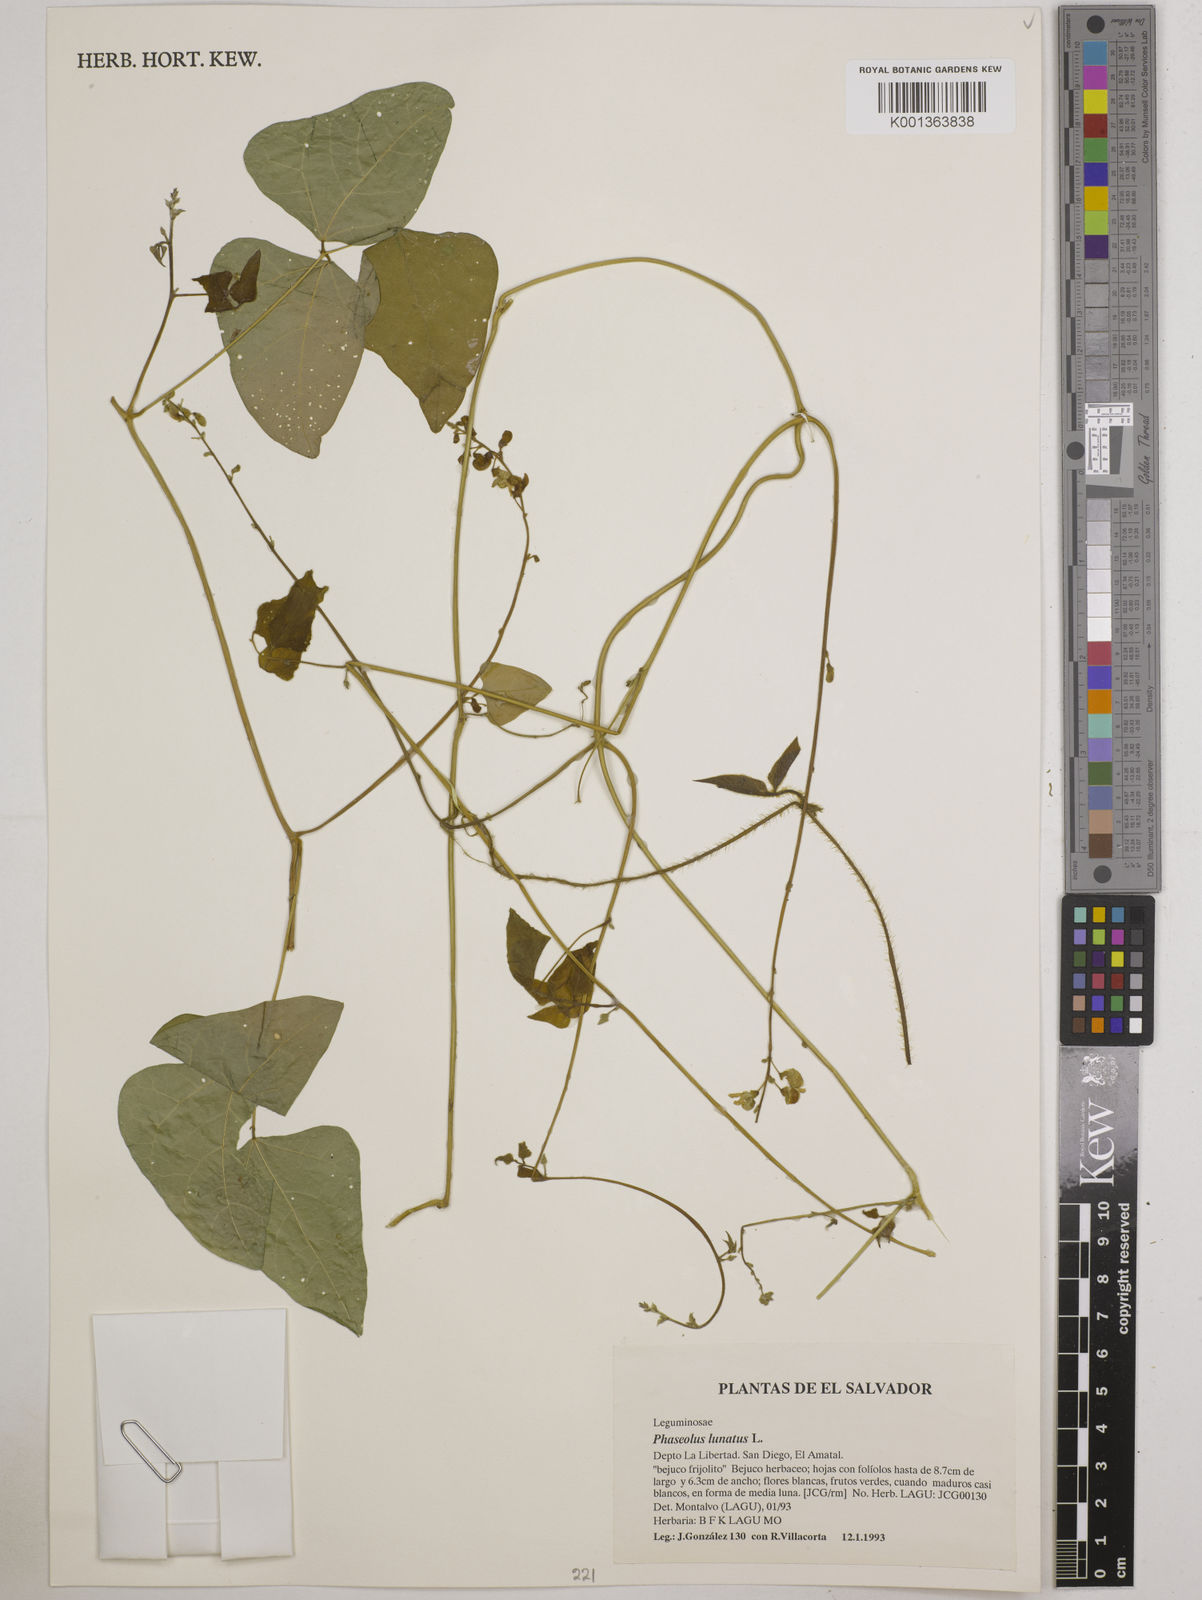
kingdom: Plantae
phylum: Tracheophyta
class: Magnoliopsida
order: Fabales
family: Fabaceae
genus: Phaseolus
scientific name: Phaseolus lunatus
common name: Sieva bean
